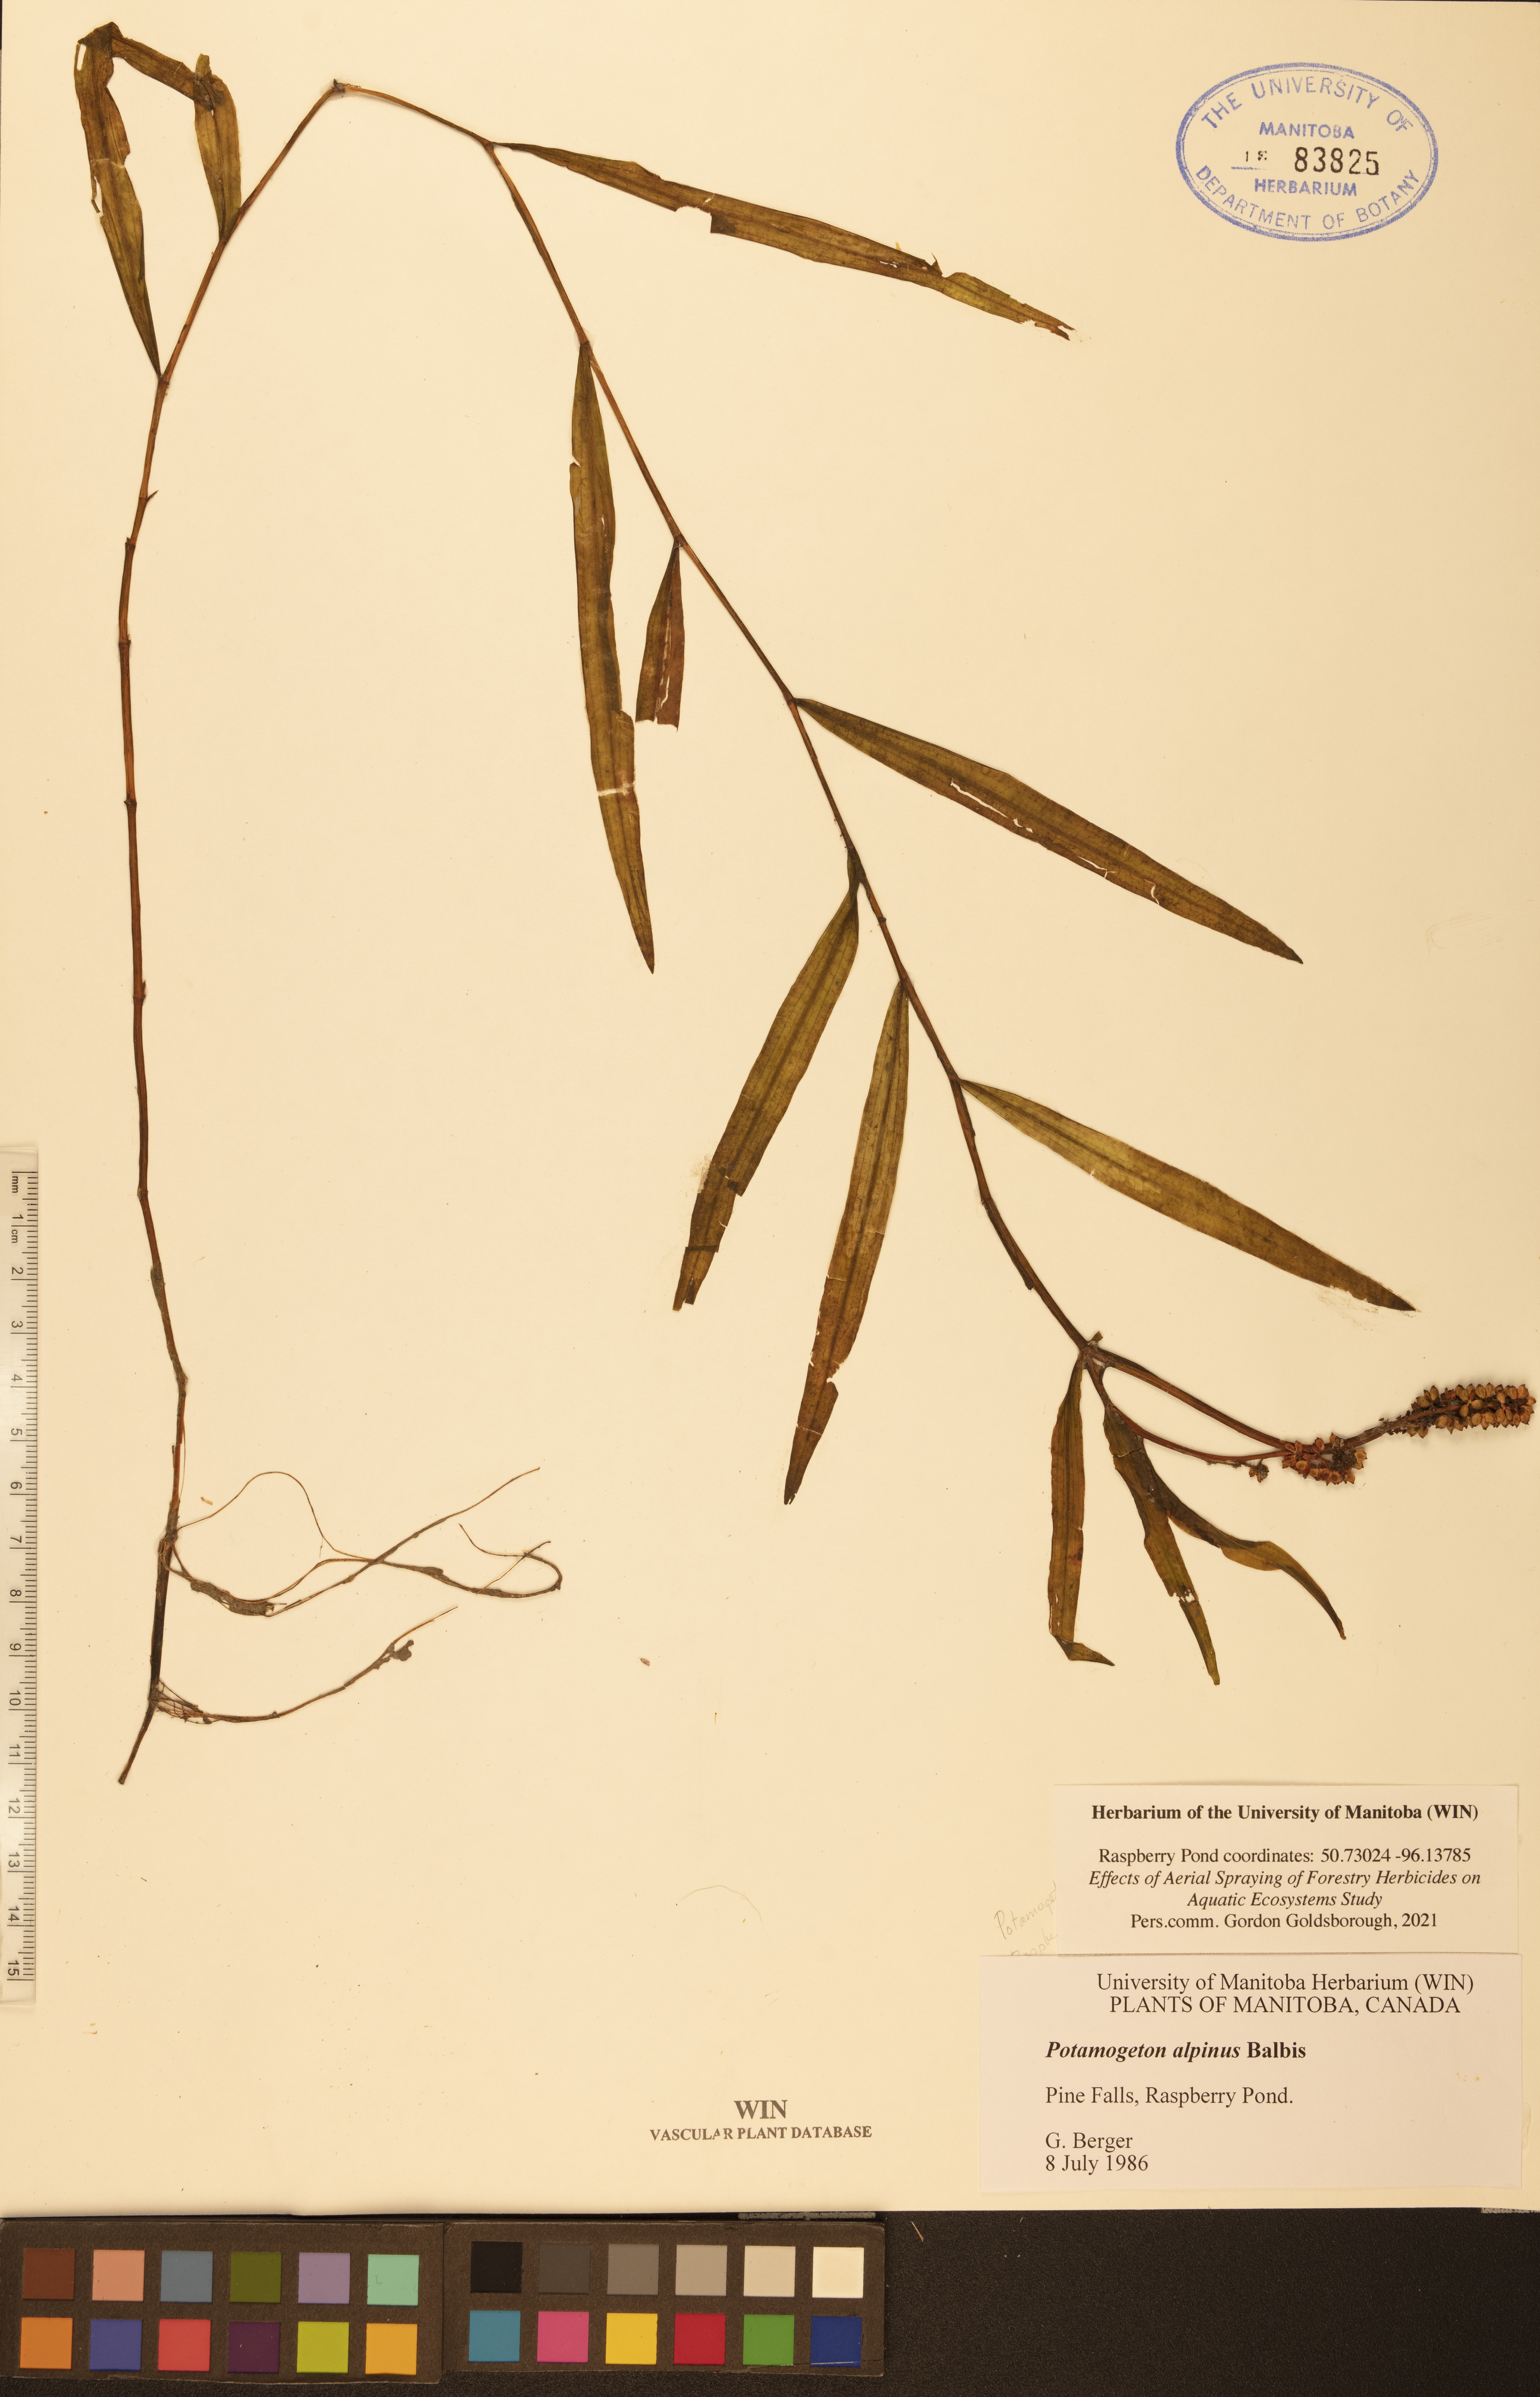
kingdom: Plantae
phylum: Tracheophyta
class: Liliopsida
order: Alismatales
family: Potamogetonaceae
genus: Potamogeton
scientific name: Potamogeton alpinus
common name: Red pondweed
